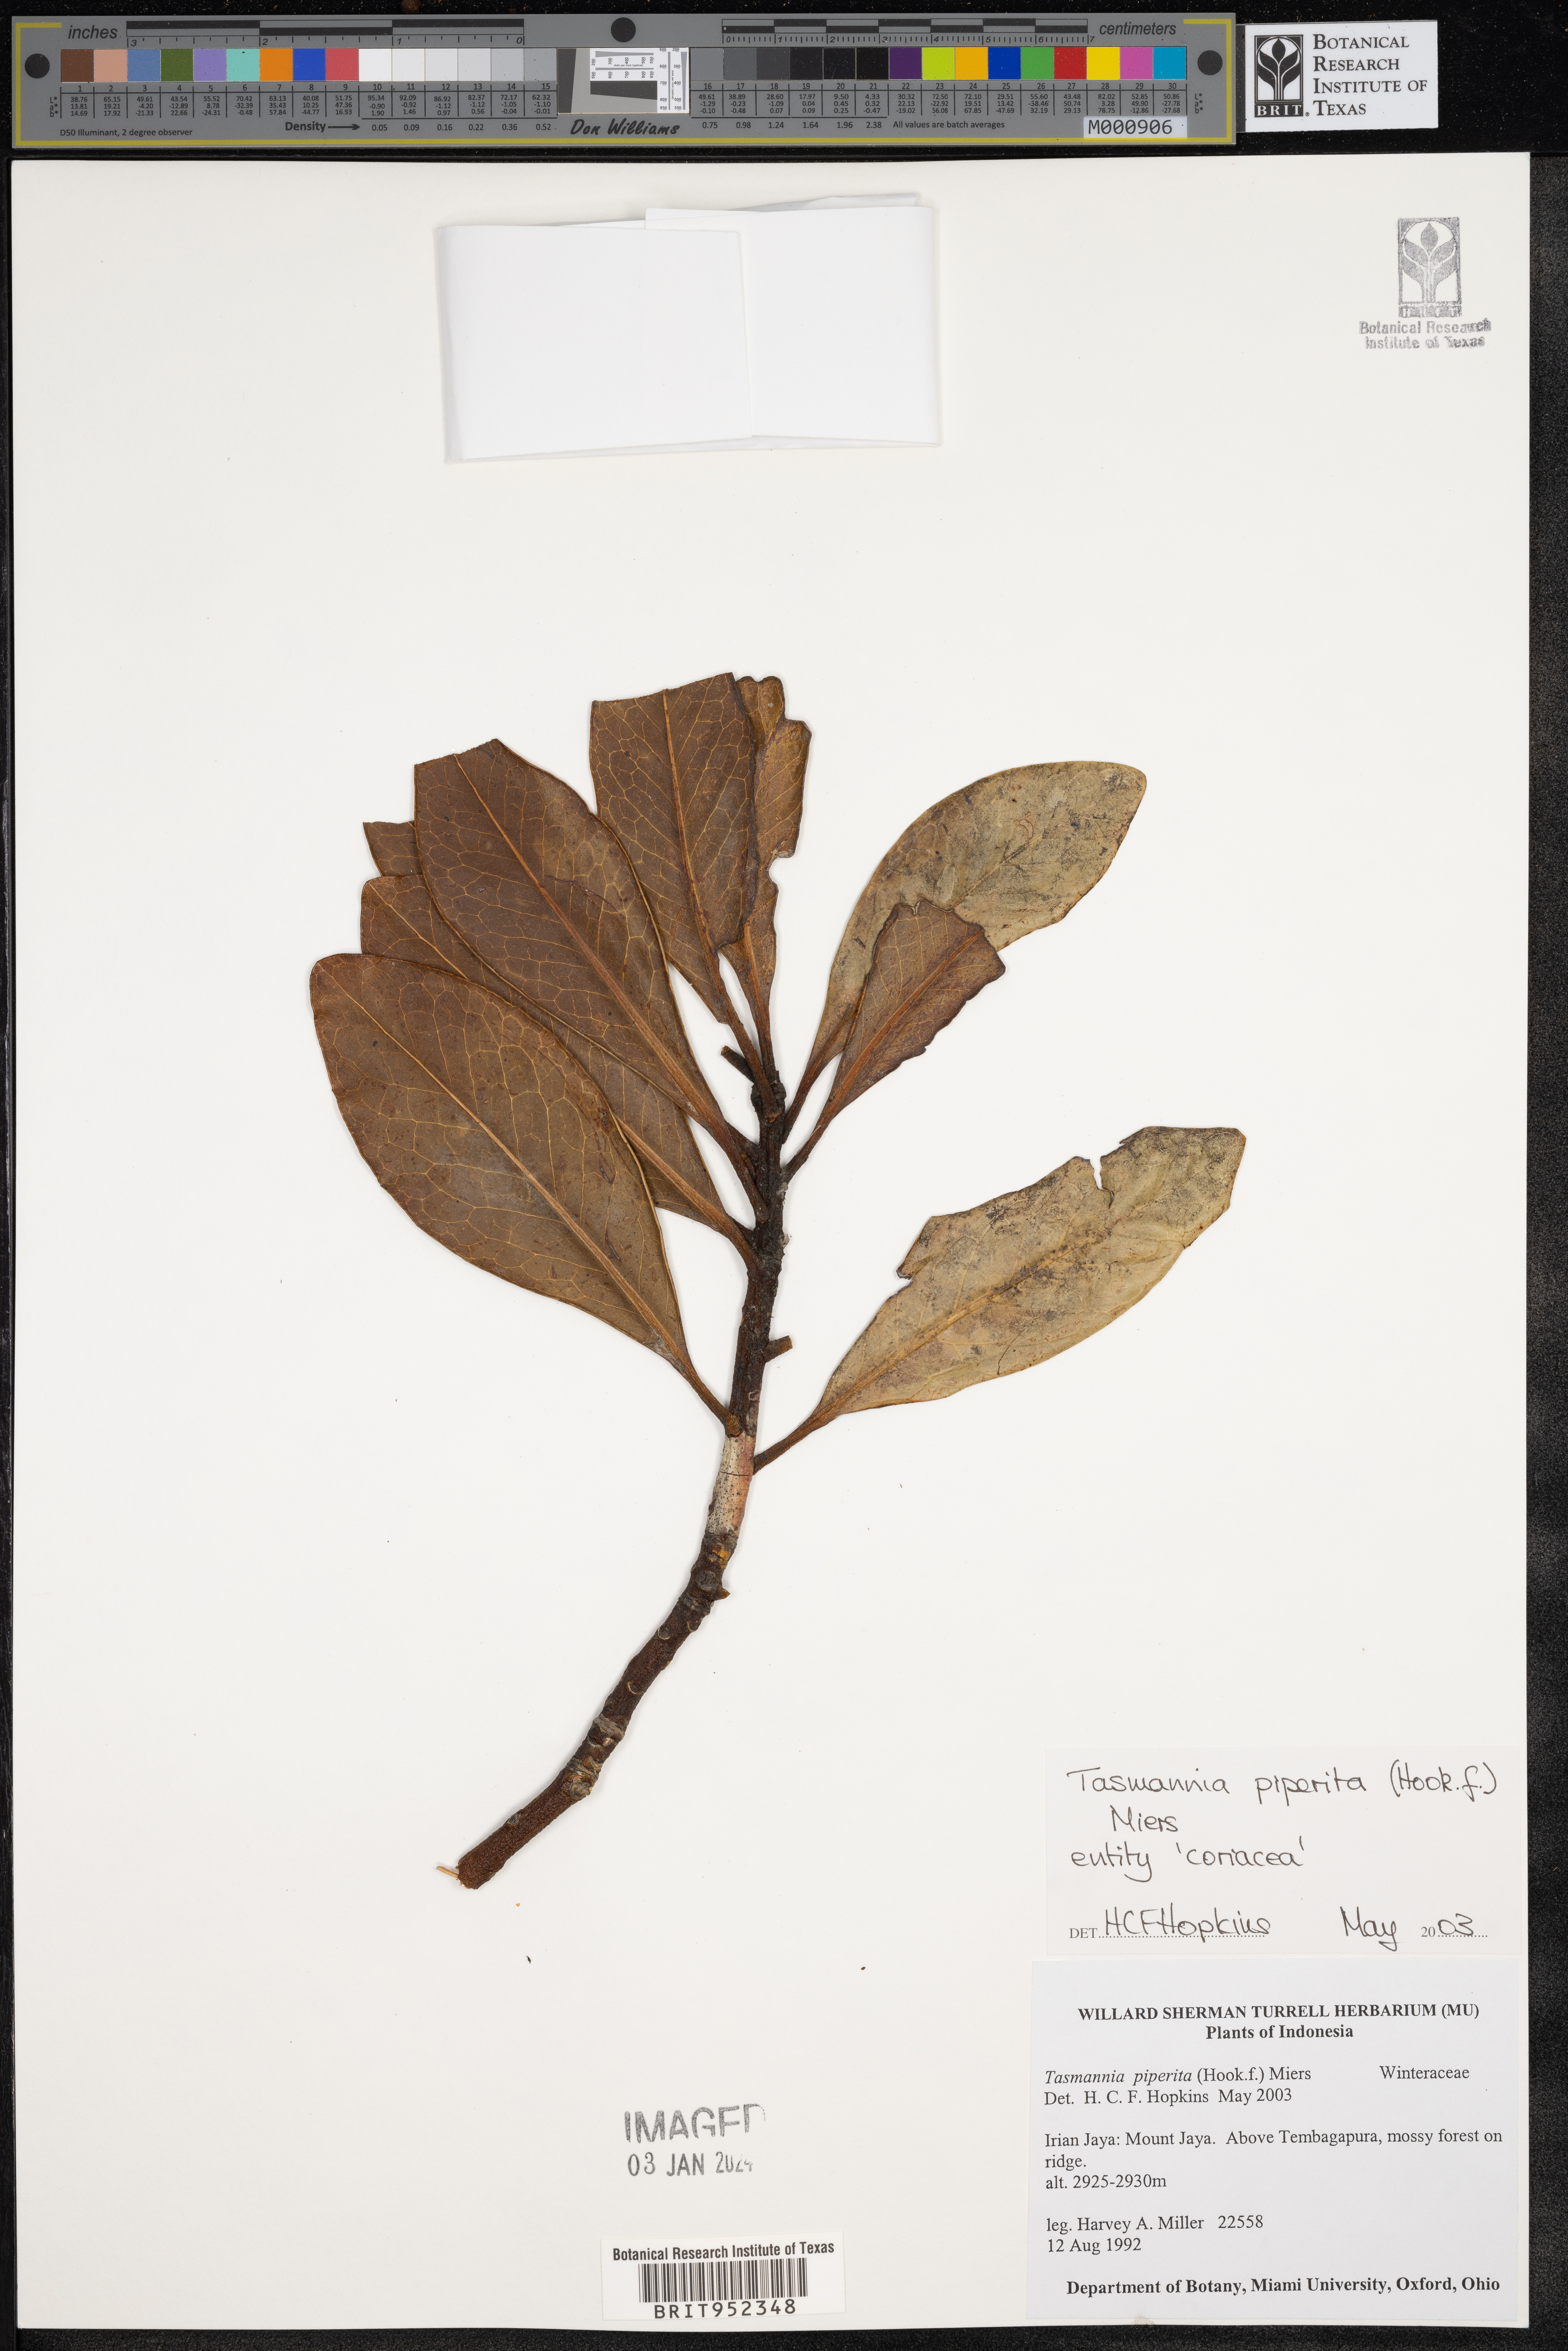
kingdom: Plantae
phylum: Tracheophyta
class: Magnoliopsida
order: Canellales
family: Winteraceae
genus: Tasmannia
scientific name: Tasmannia
